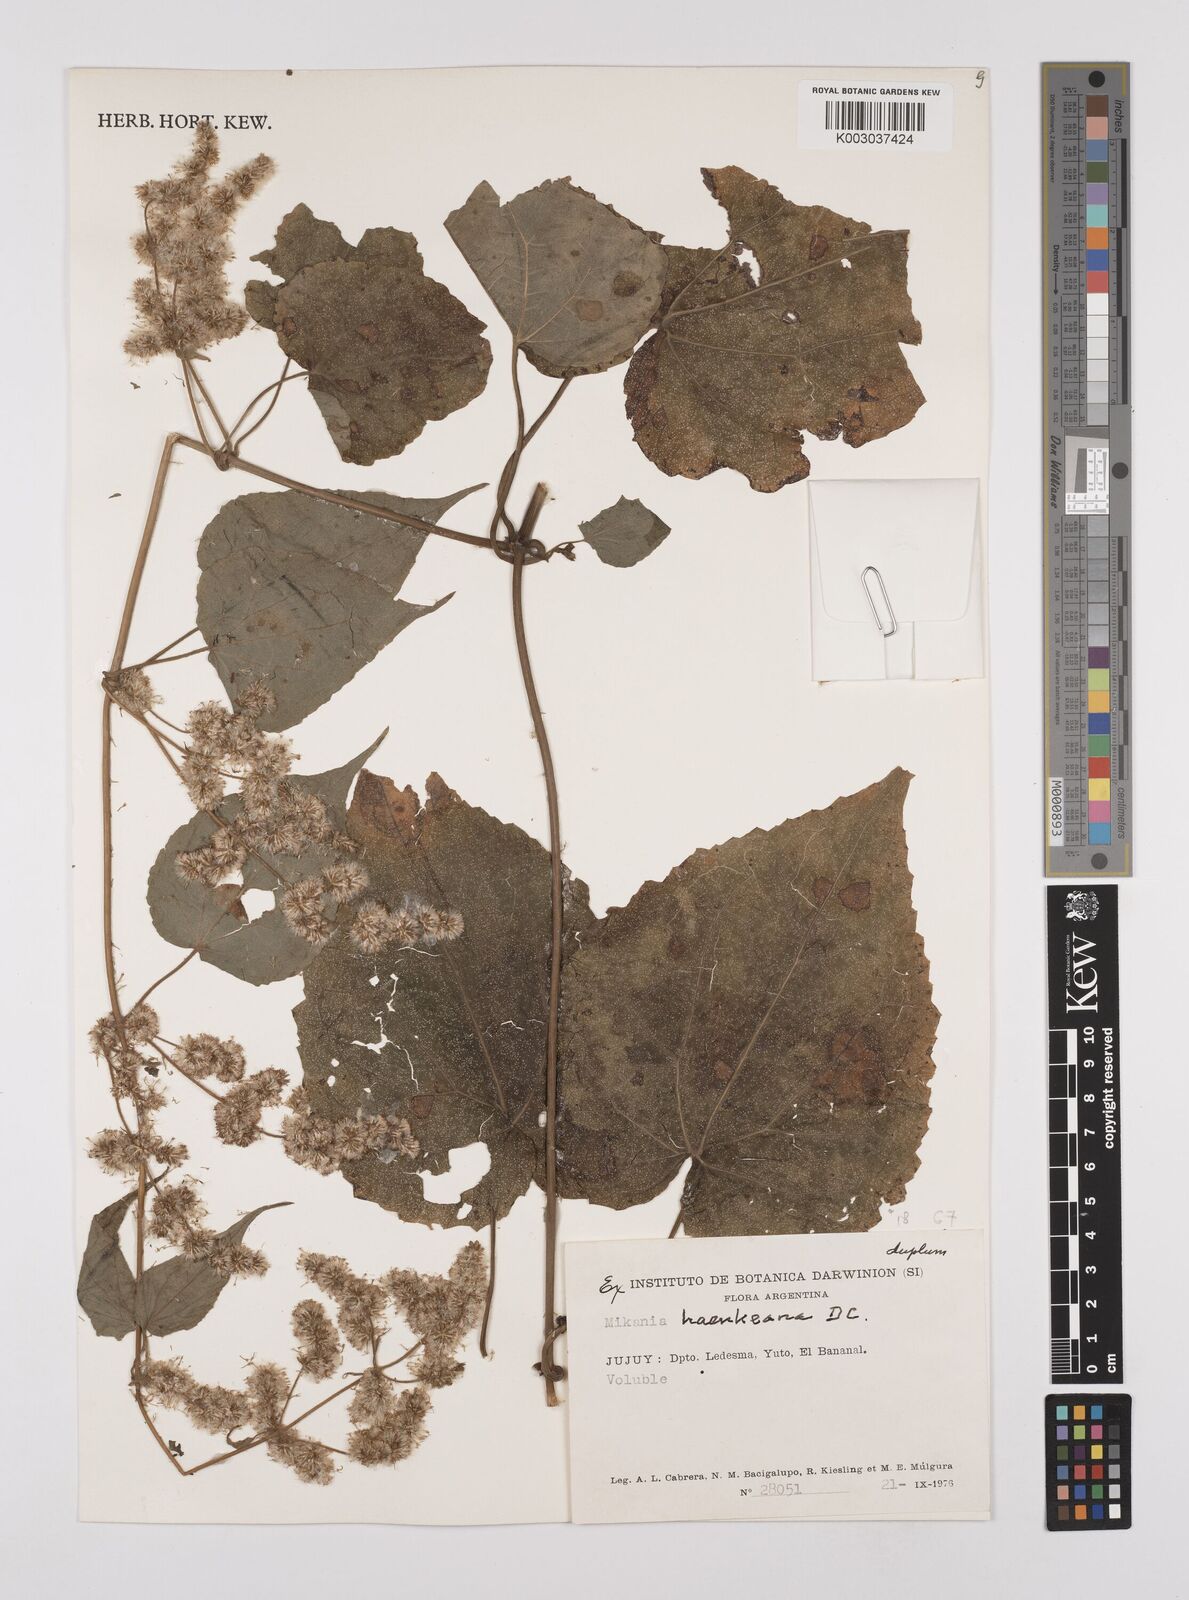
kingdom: Plantae
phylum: Tracheophyta
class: Magnoliopsida
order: Asterales
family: Asteraceae
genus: Mikania
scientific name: Mikania haenkeana
